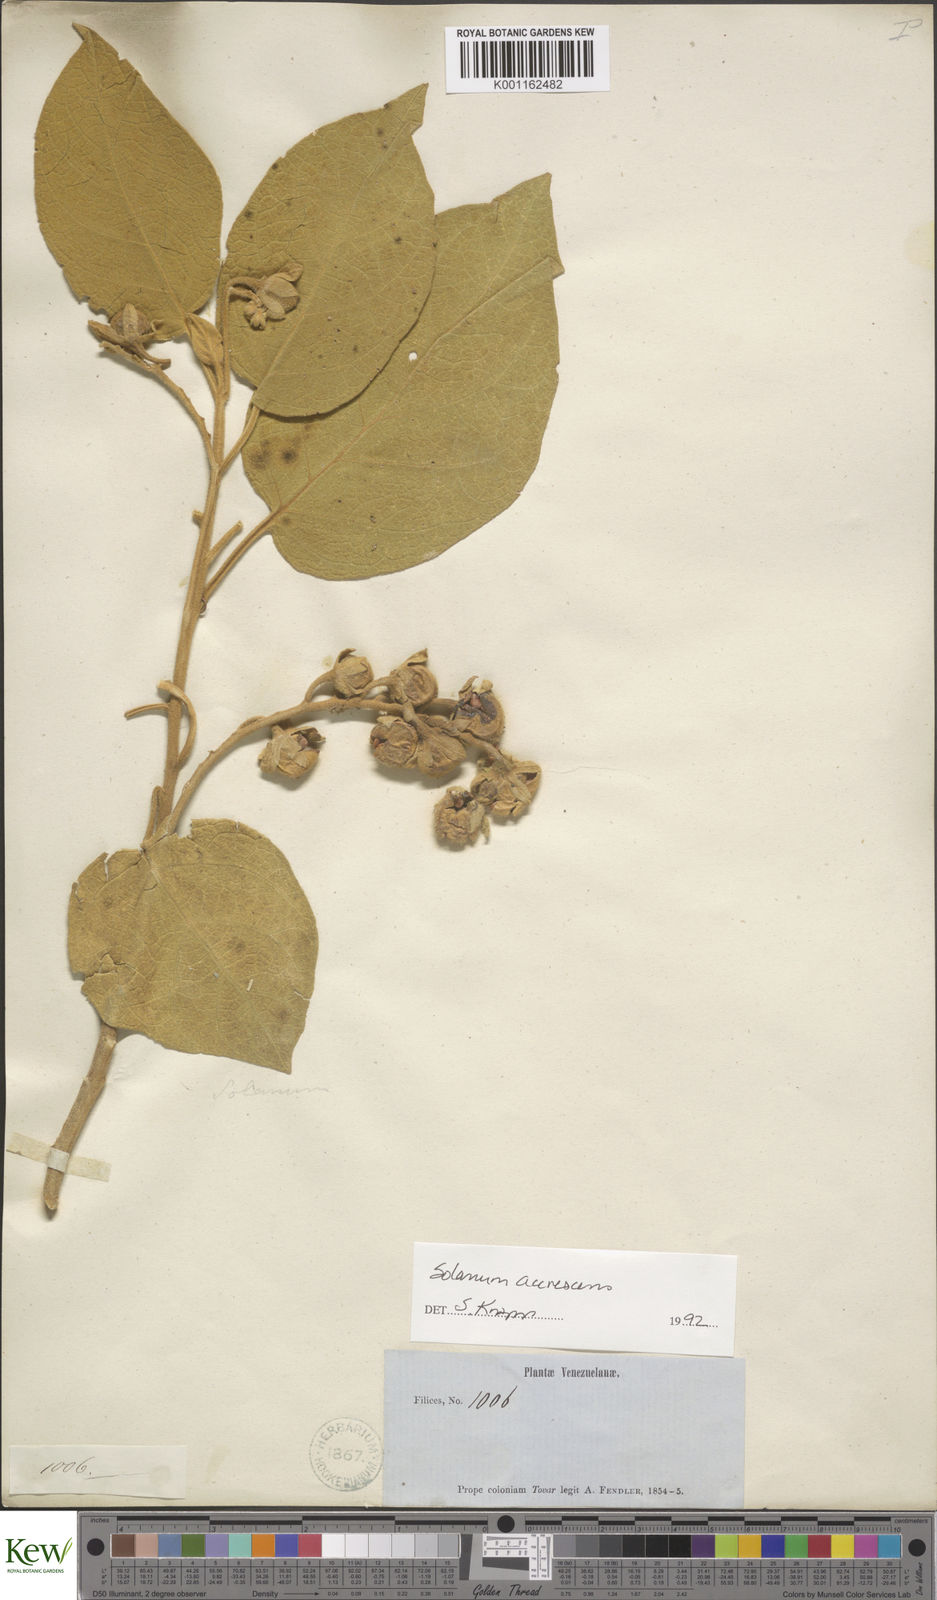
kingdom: Plantae
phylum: Tracheophyta
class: Magnoliopsida
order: Solanales
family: Solanaceae
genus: Solanum
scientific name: Solanum accrescens
